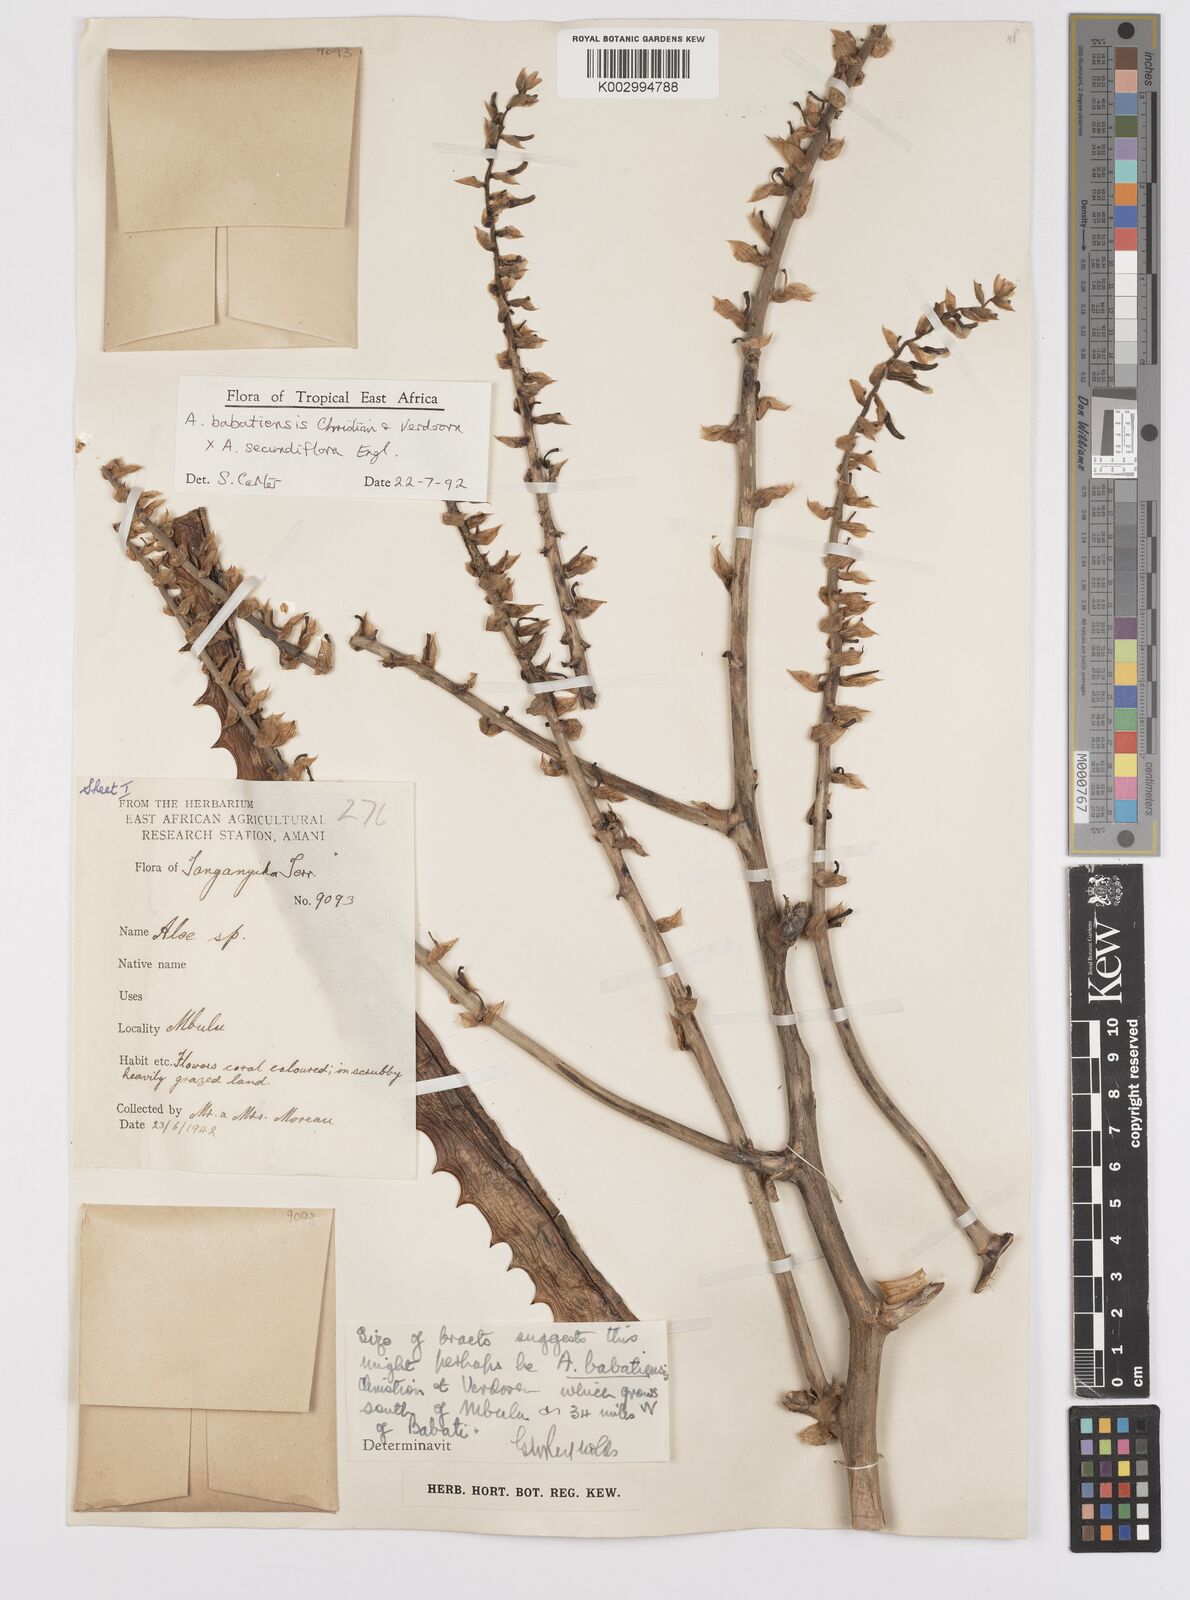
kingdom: Plantae
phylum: Tracheophyta
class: Liliopsida
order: Asparagales
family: Asphodelaceae
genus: Aloe
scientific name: Aloe babatiensis
